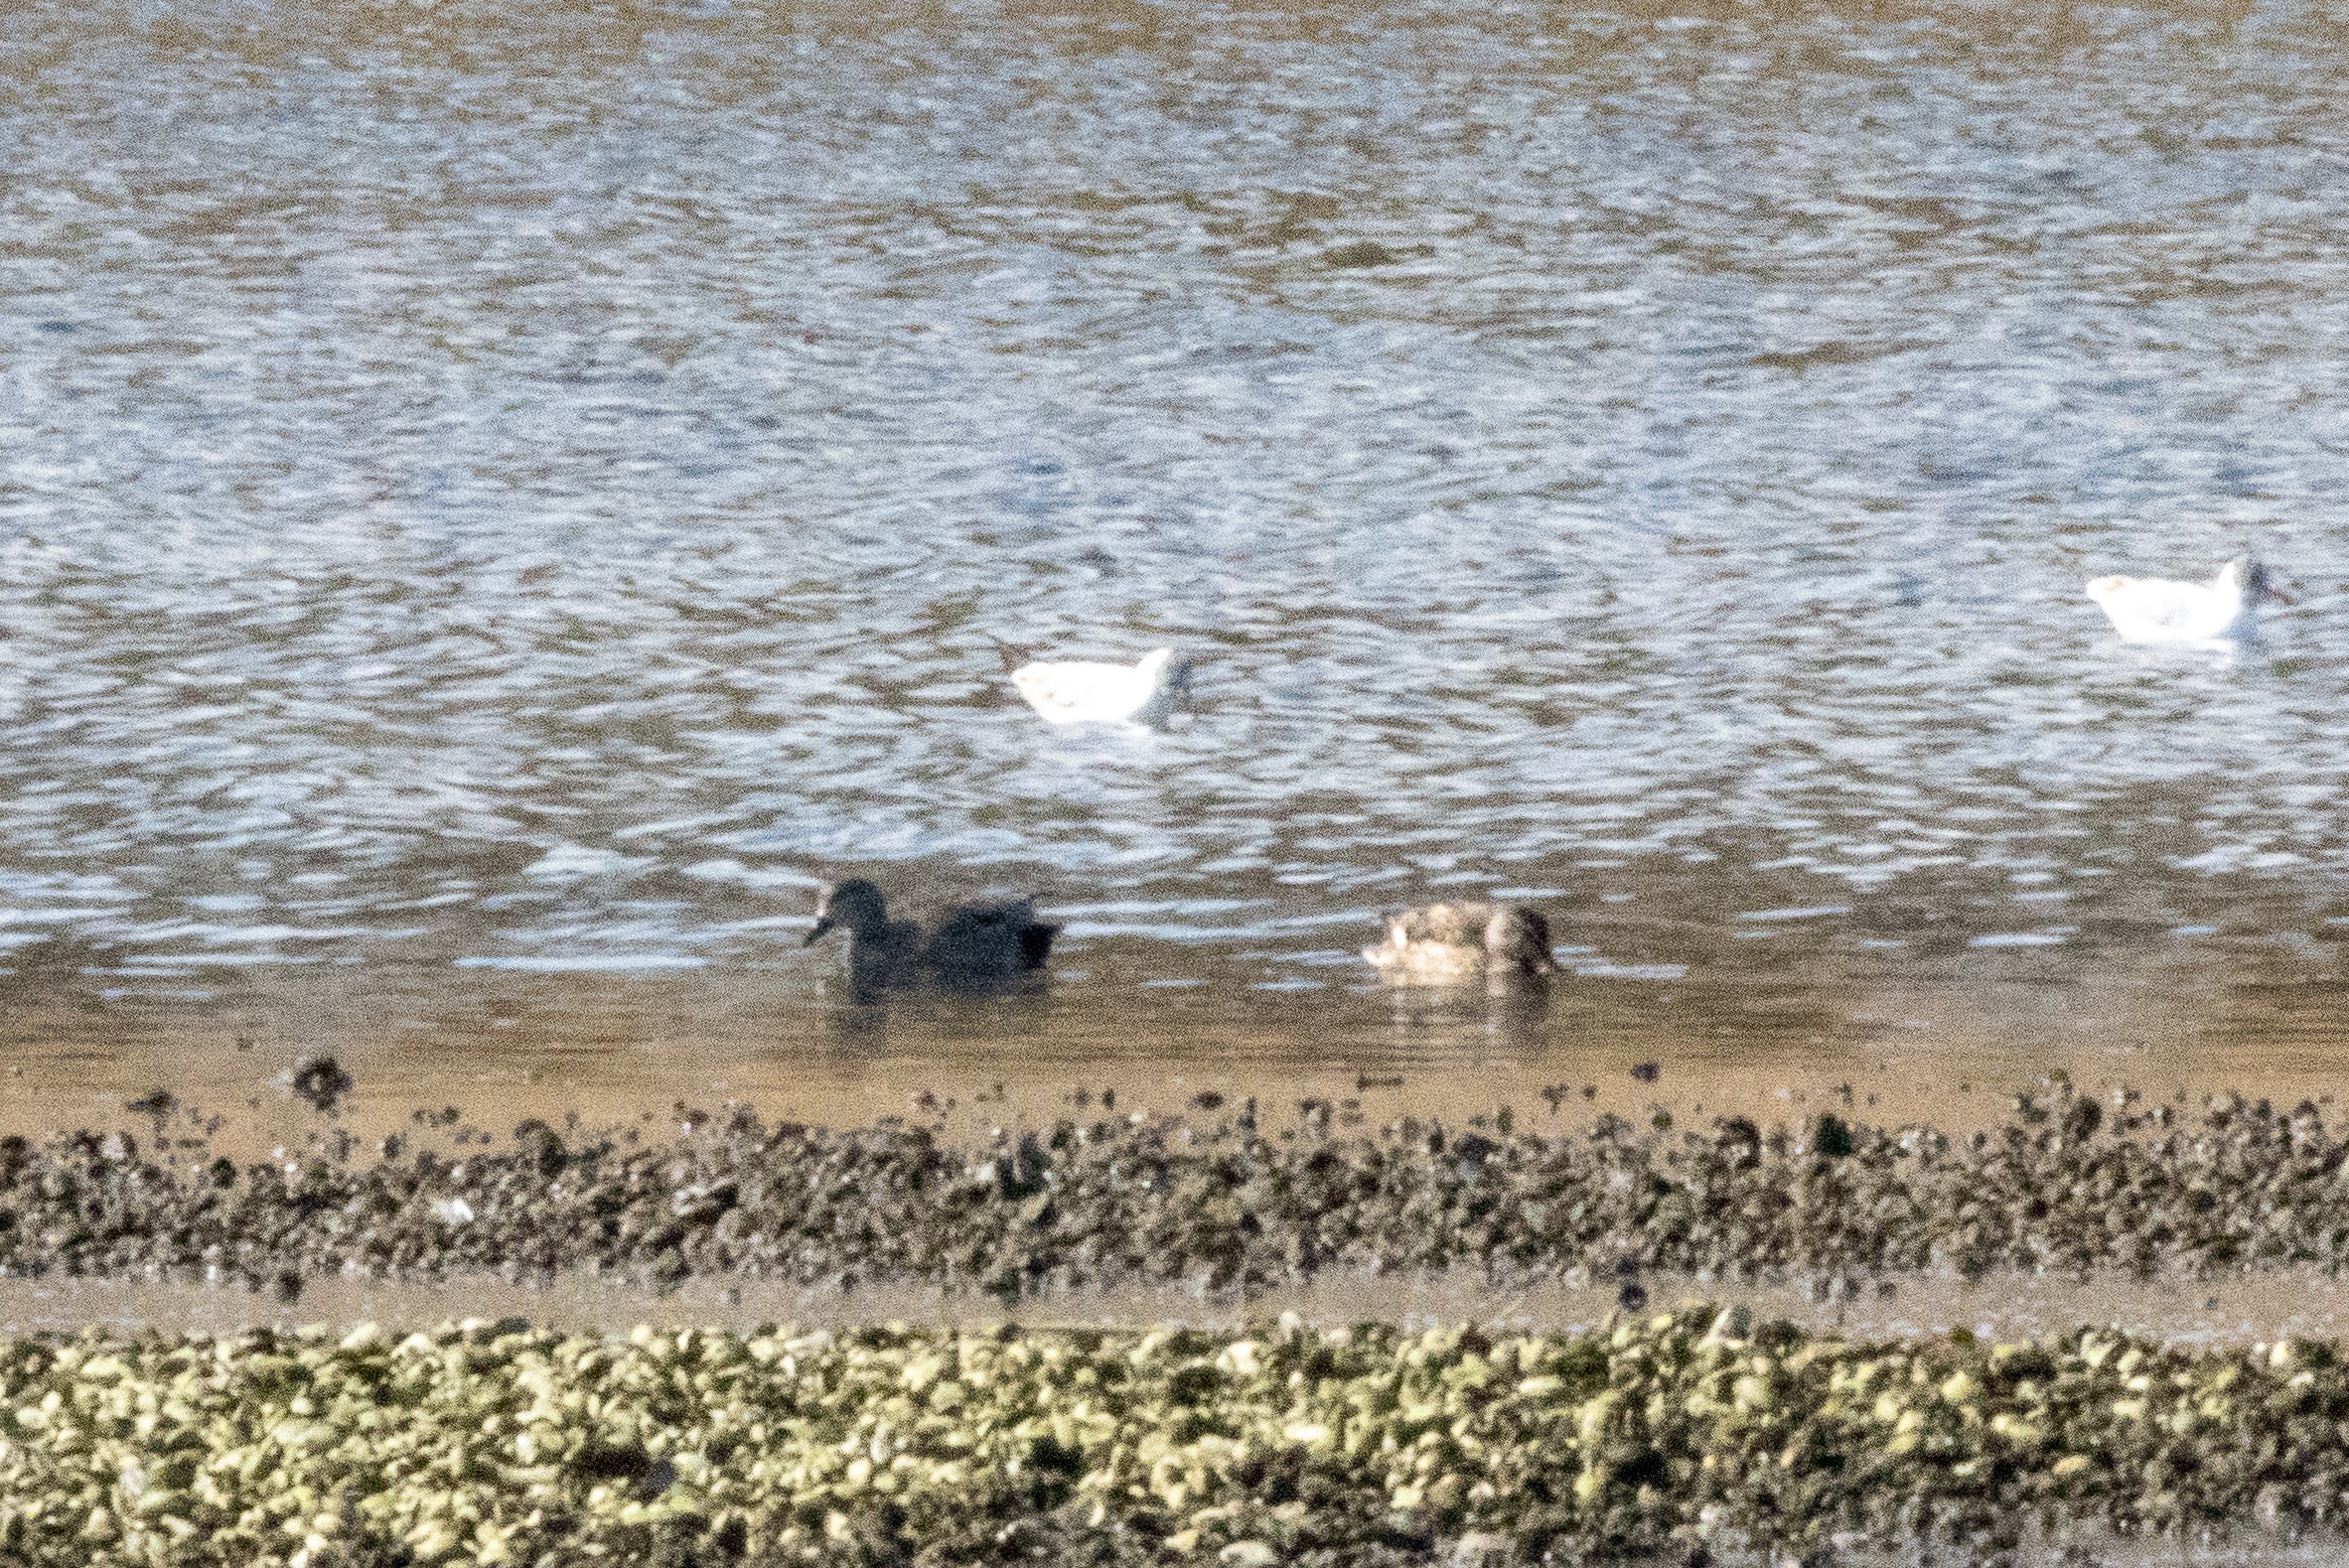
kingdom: Animalia
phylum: Chordata
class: Aves
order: Anseriformes
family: Anatidae
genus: Mareca
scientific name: Mareca strepera
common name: Knarand
